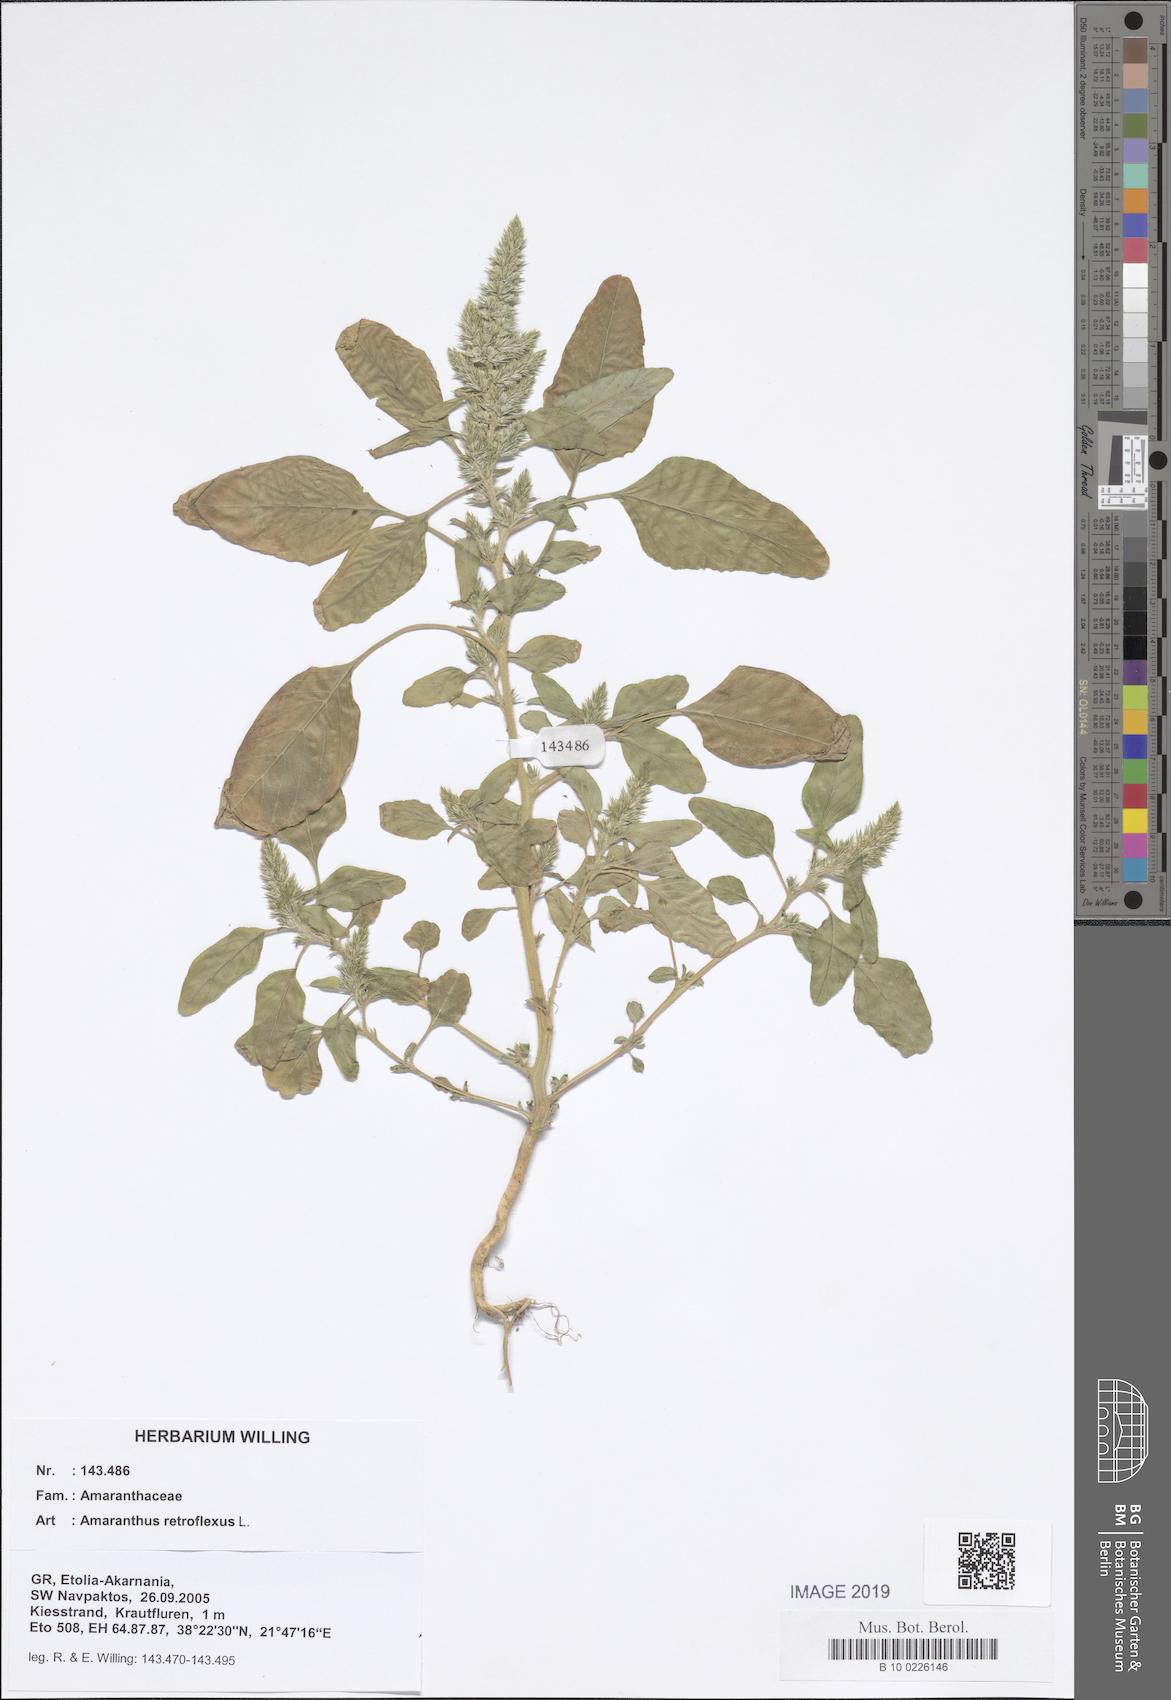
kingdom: Plantae
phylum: Tracheophyta
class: Magnoliopsida
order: Caryophyllales
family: Amaranthaceae
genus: Amaranthus
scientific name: Amaranthus retroflexus
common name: Redroot amaranth
